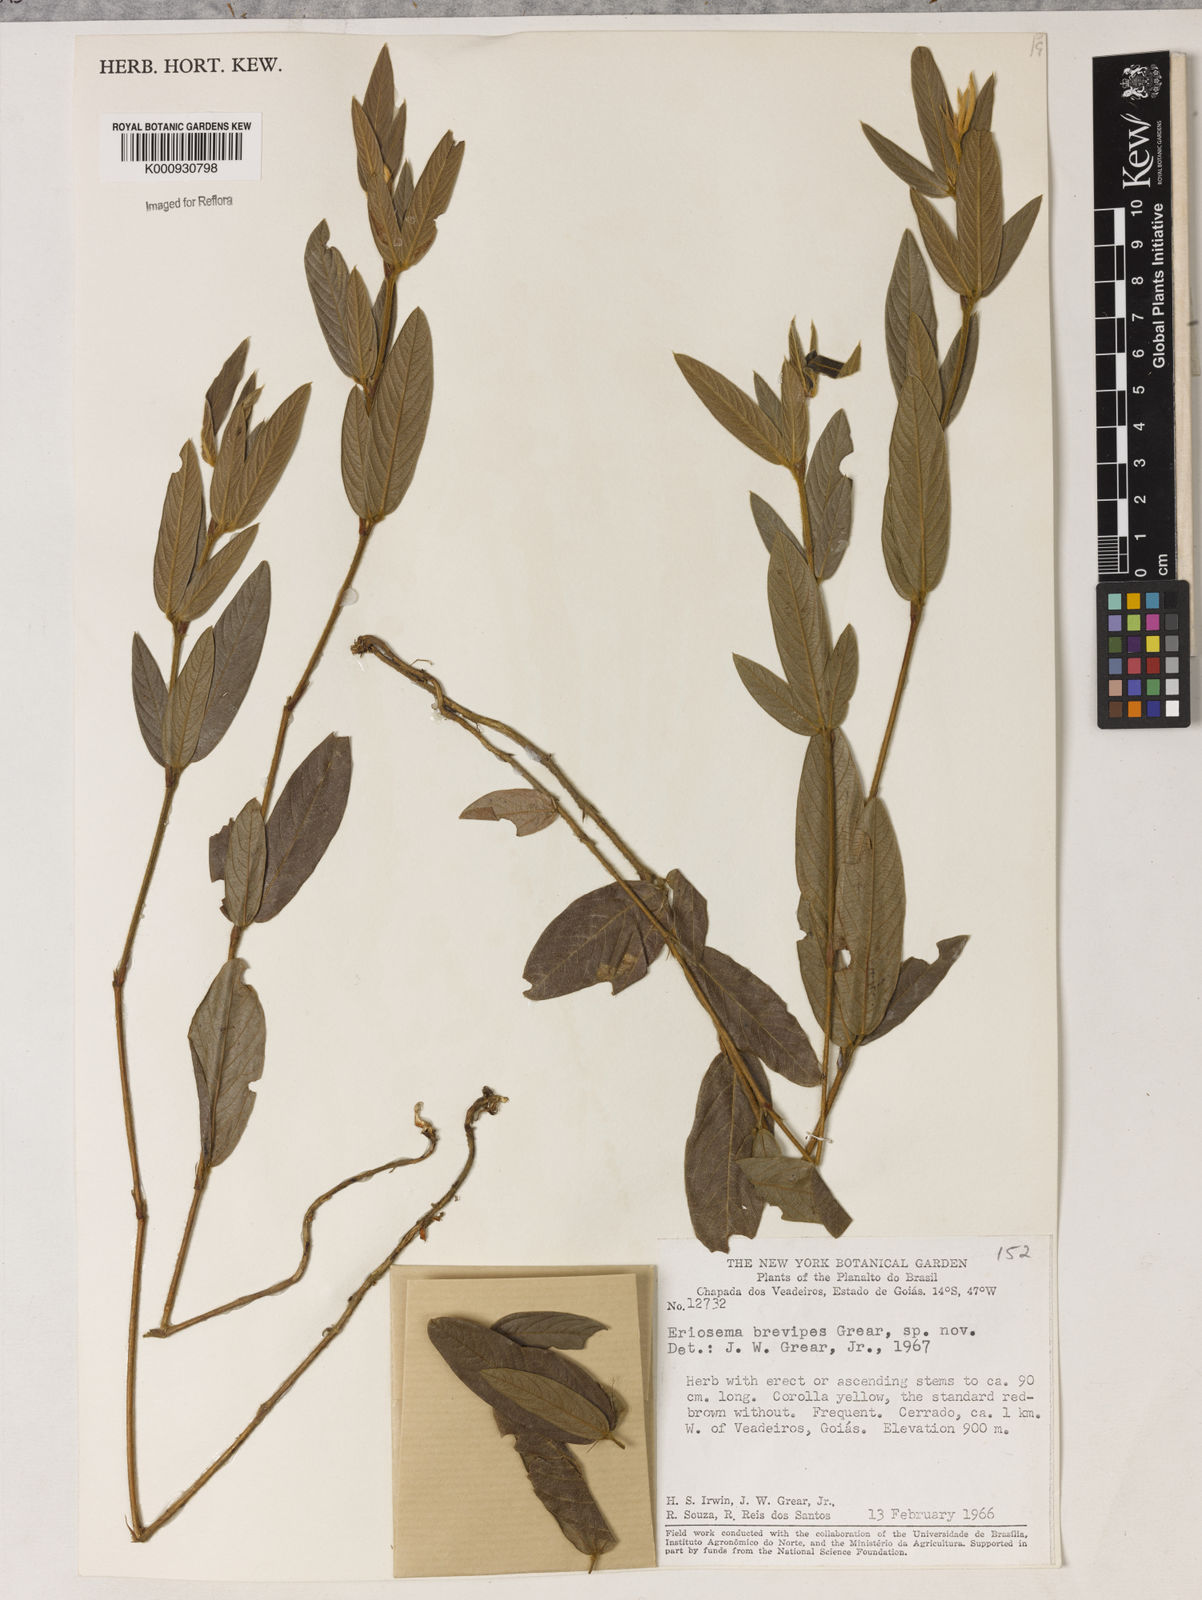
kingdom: Plantae
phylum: Tracheophyta
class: Magnoliopsida
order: Fabales
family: Fabaceae
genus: Eriosema
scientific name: Eriosema brevipes
